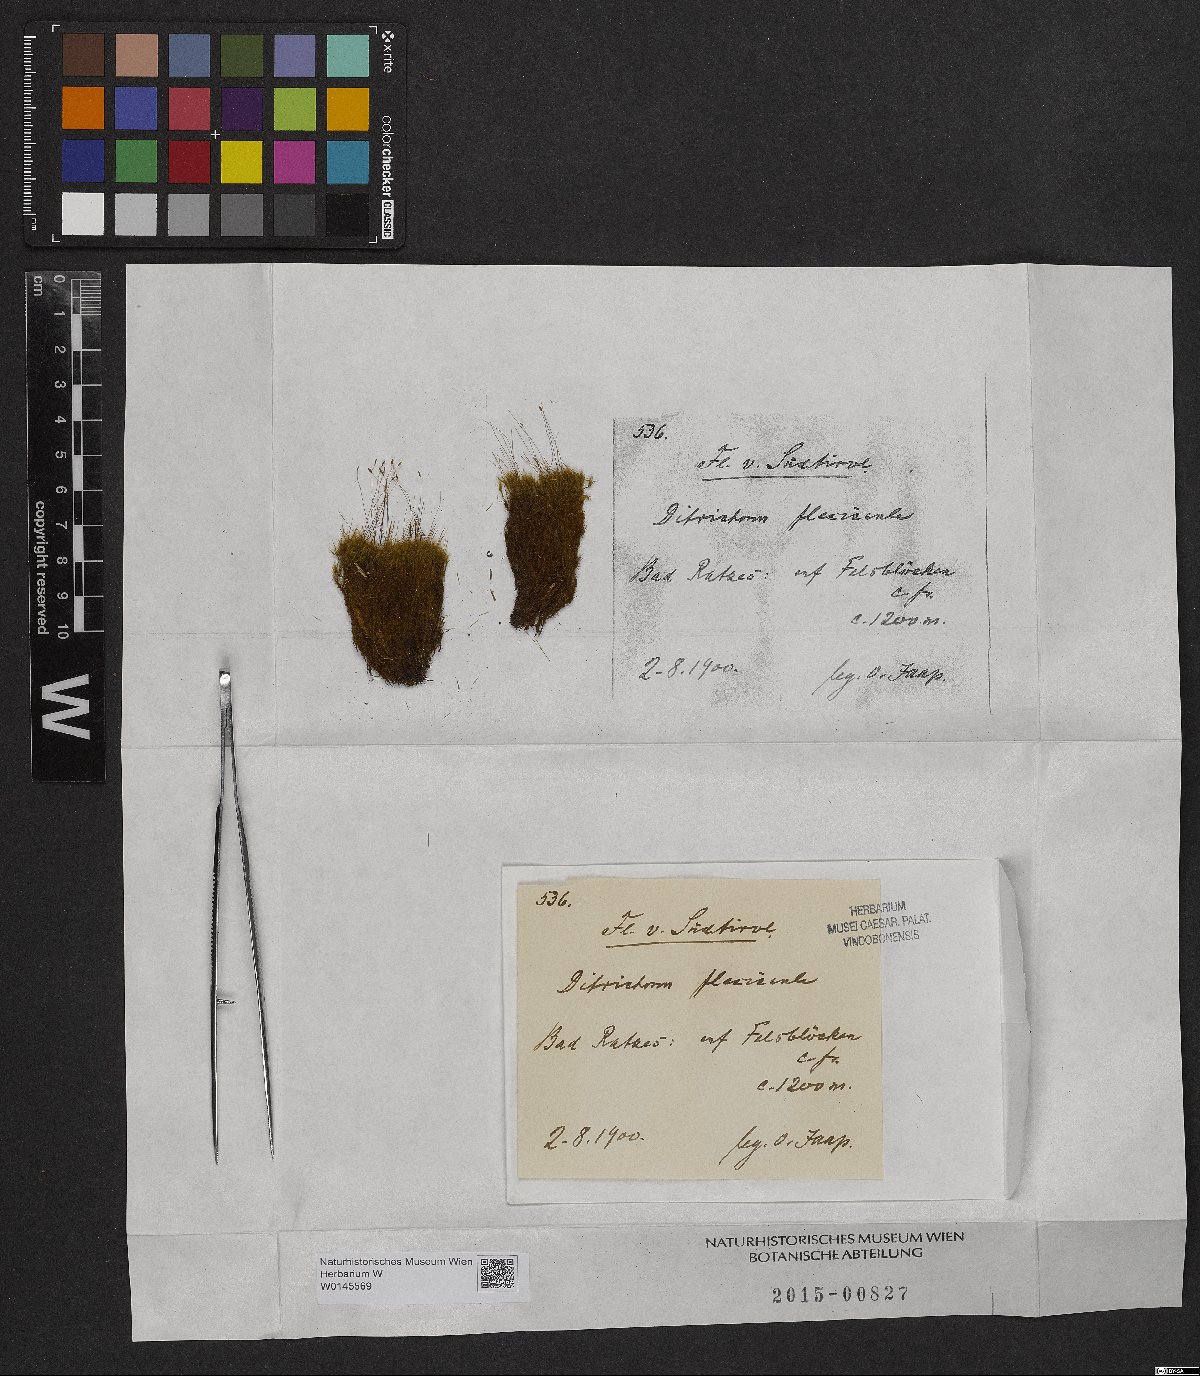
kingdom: Plantae
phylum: Bryophyta
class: Bryopsida
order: Scouleriales
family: Flexitrichaceae
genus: Flexitrichum
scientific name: Flexitrichum flexicaule
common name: Bendy ditrichum
